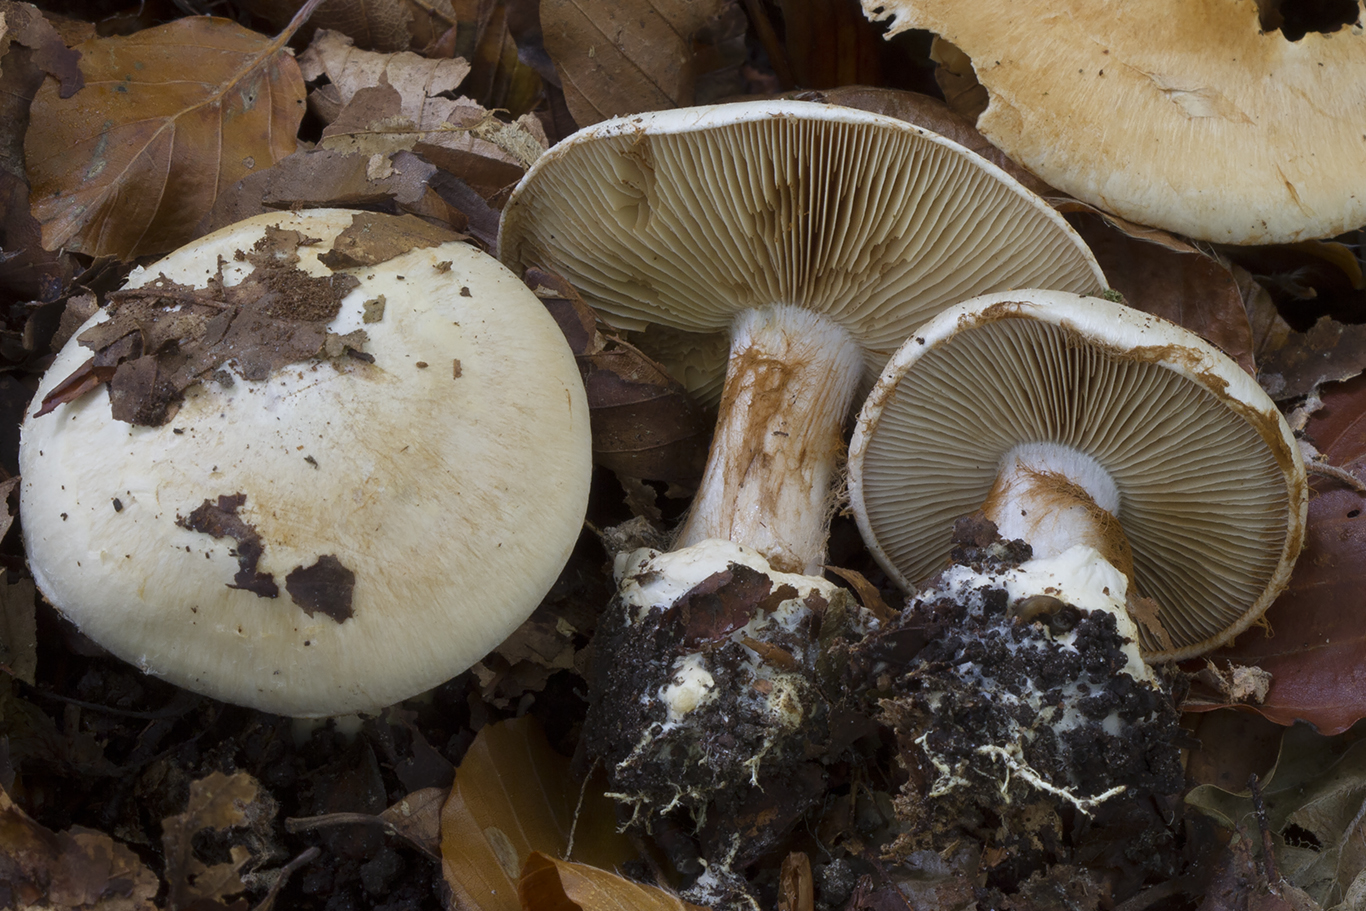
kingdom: Fungi
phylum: Basidiomycota
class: Agaricomycetes
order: Agaricales
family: Cortinariaceae
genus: Cortinarius
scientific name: Cortinarius foetens
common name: stribet slørhat
